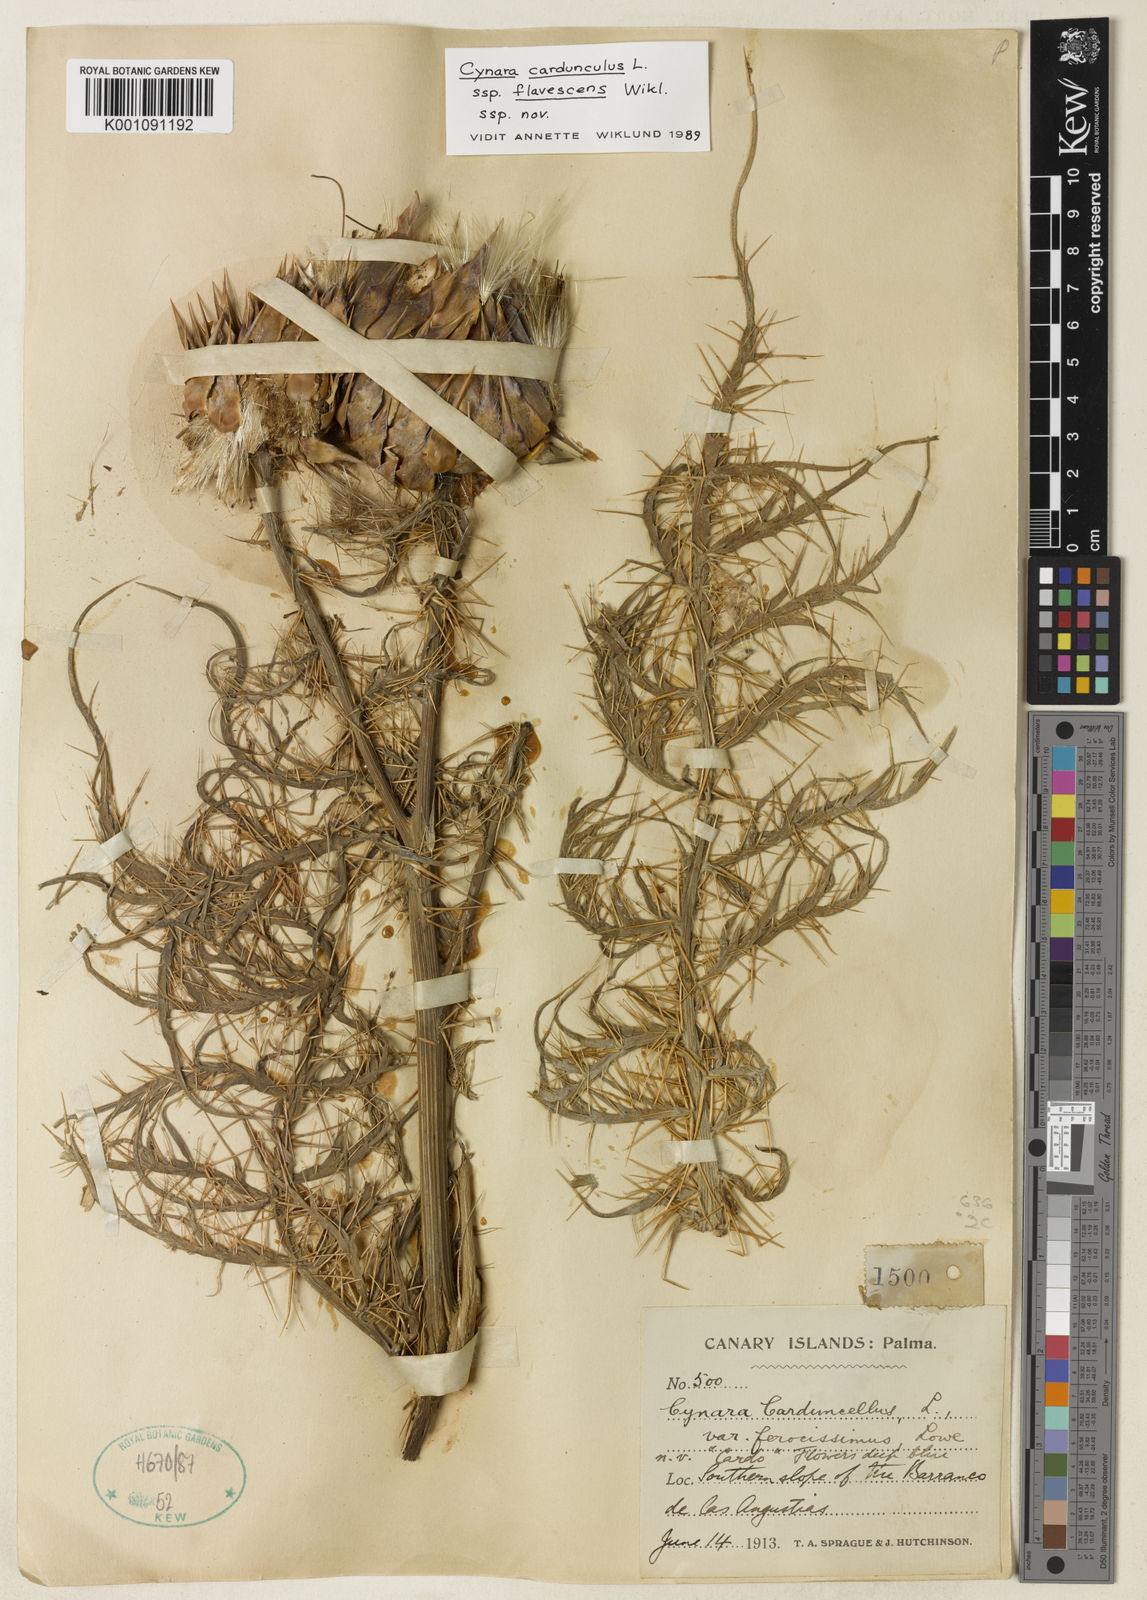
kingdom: Plantae
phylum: Tracheophyta
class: Magnoliopsida
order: Asterales
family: Asteraceae
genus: Cynara
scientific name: Cynara cardunculus
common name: Globe artichoke
